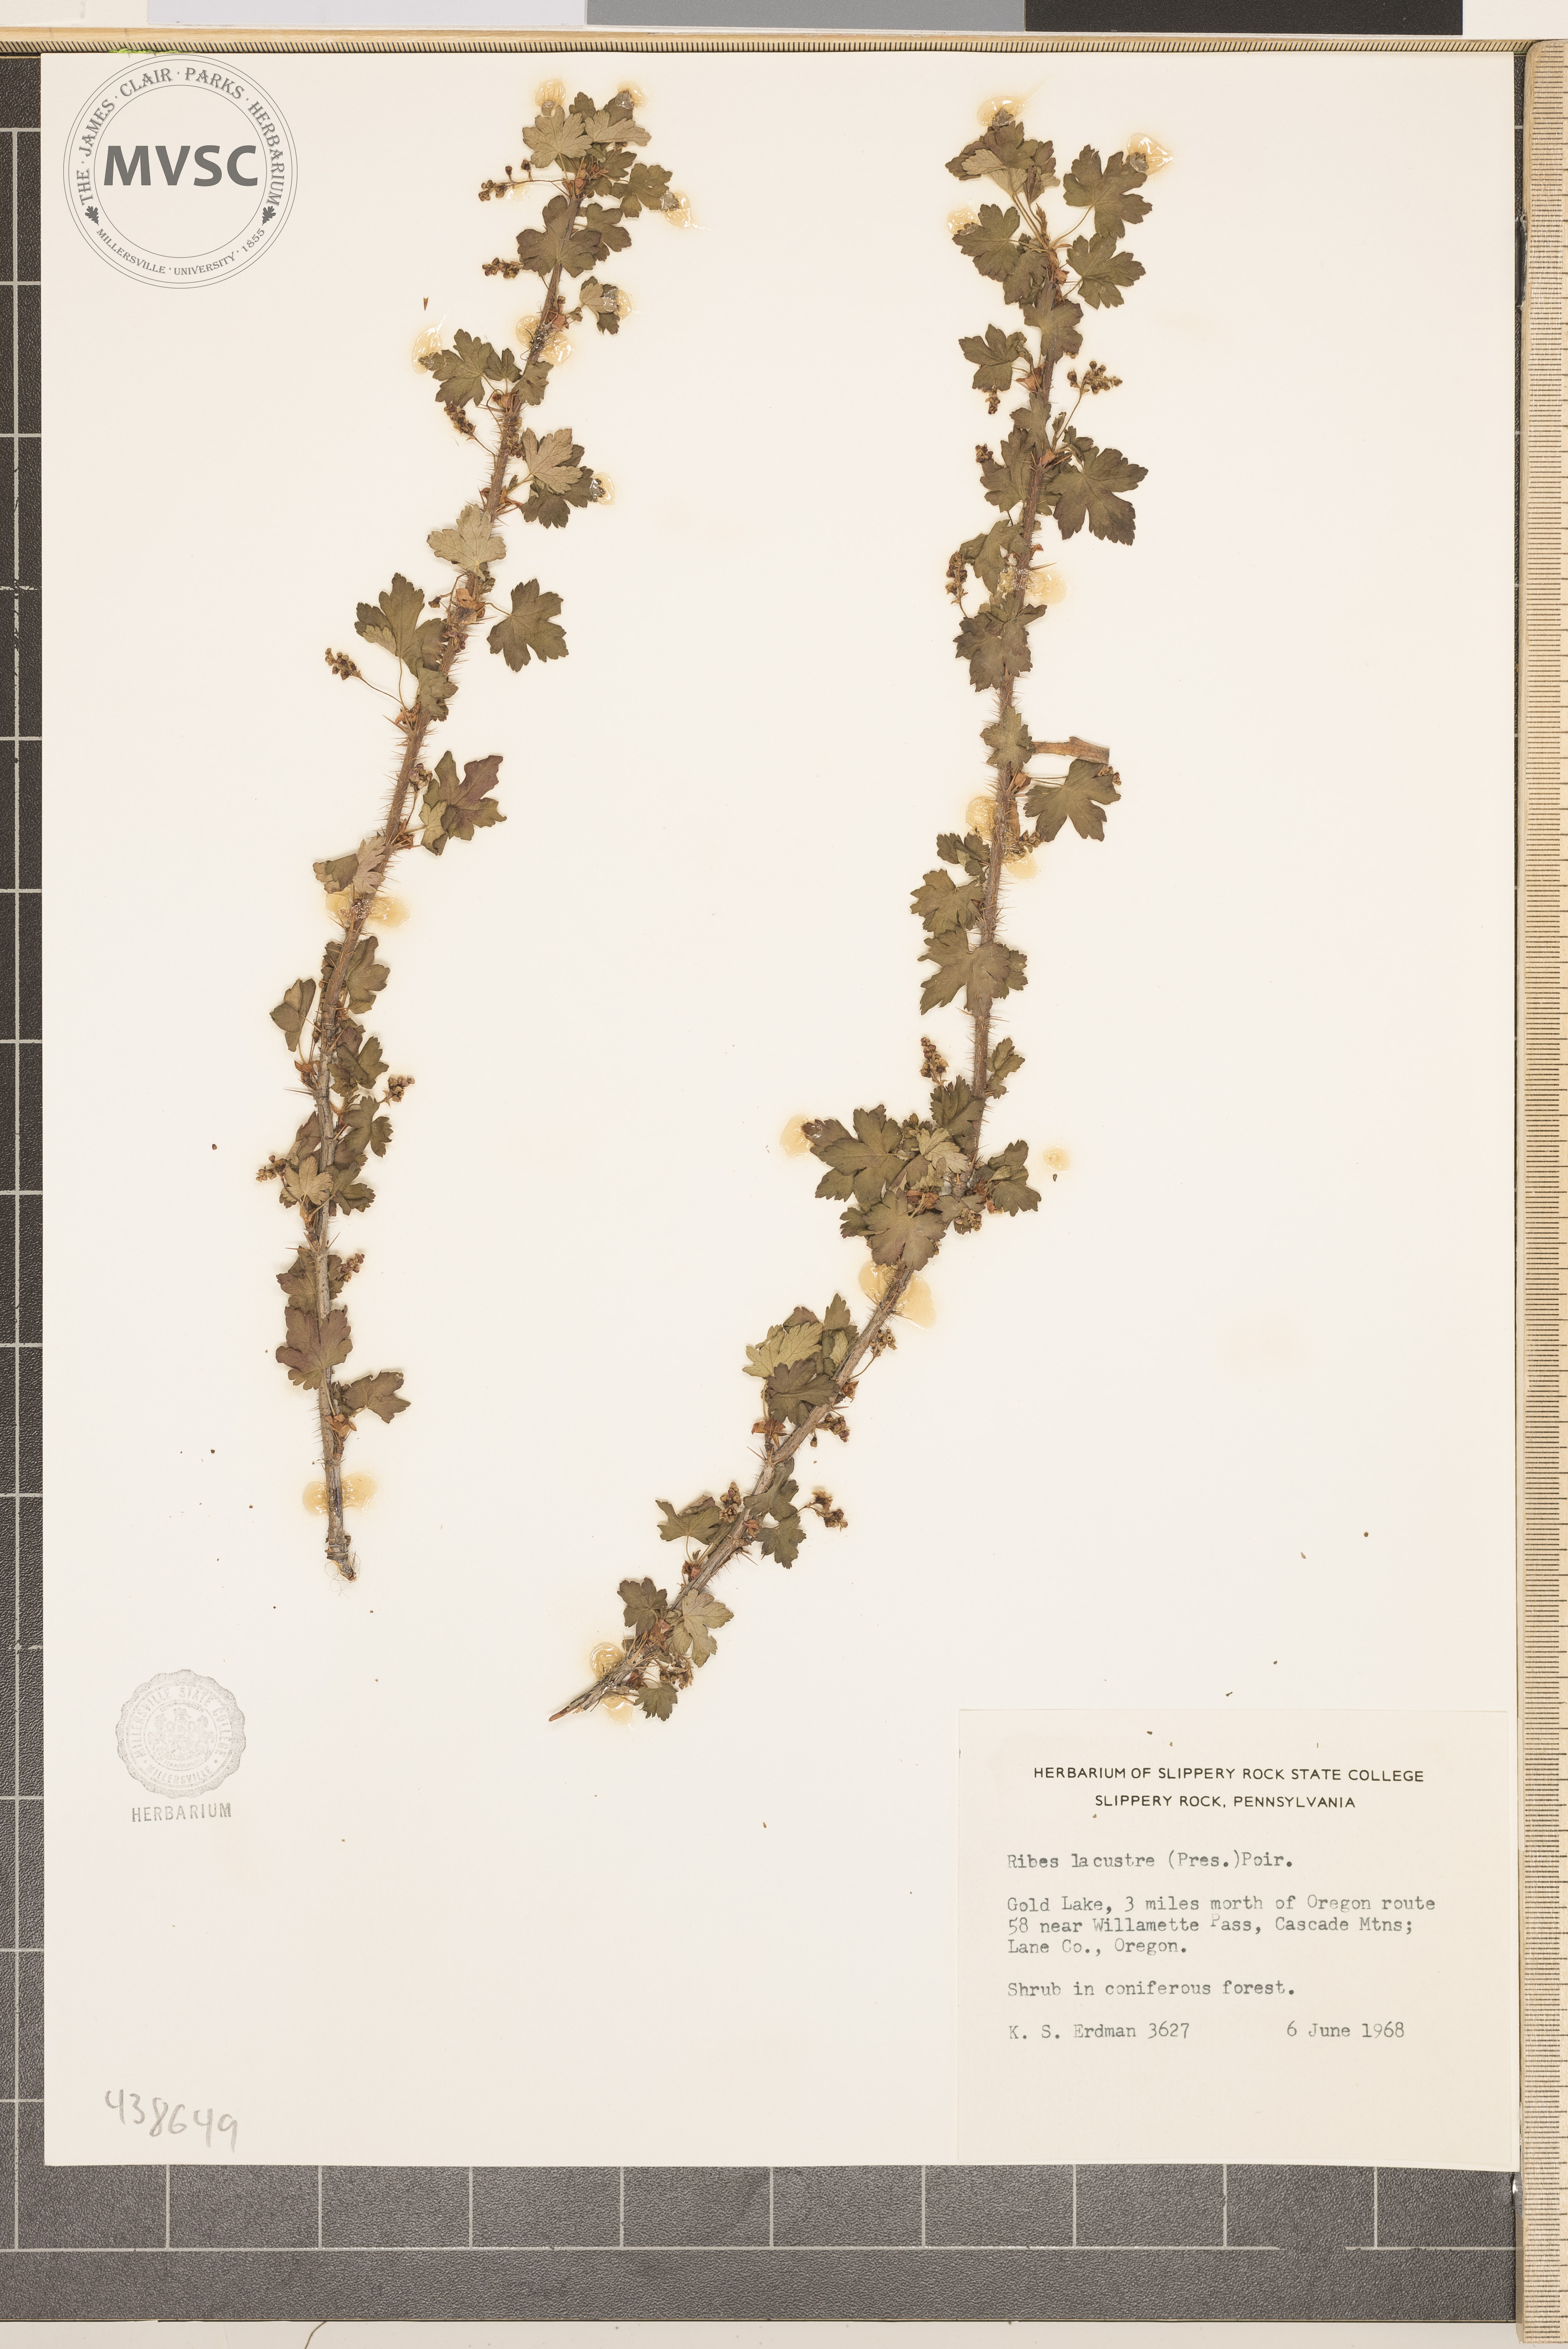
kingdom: Plantae
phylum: Tracheophyta
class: Magnoliopsida
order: Saxifragales
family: Grossulariaceae
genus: Ribes
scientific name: Ribes lacustre
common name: Black gooseberry
